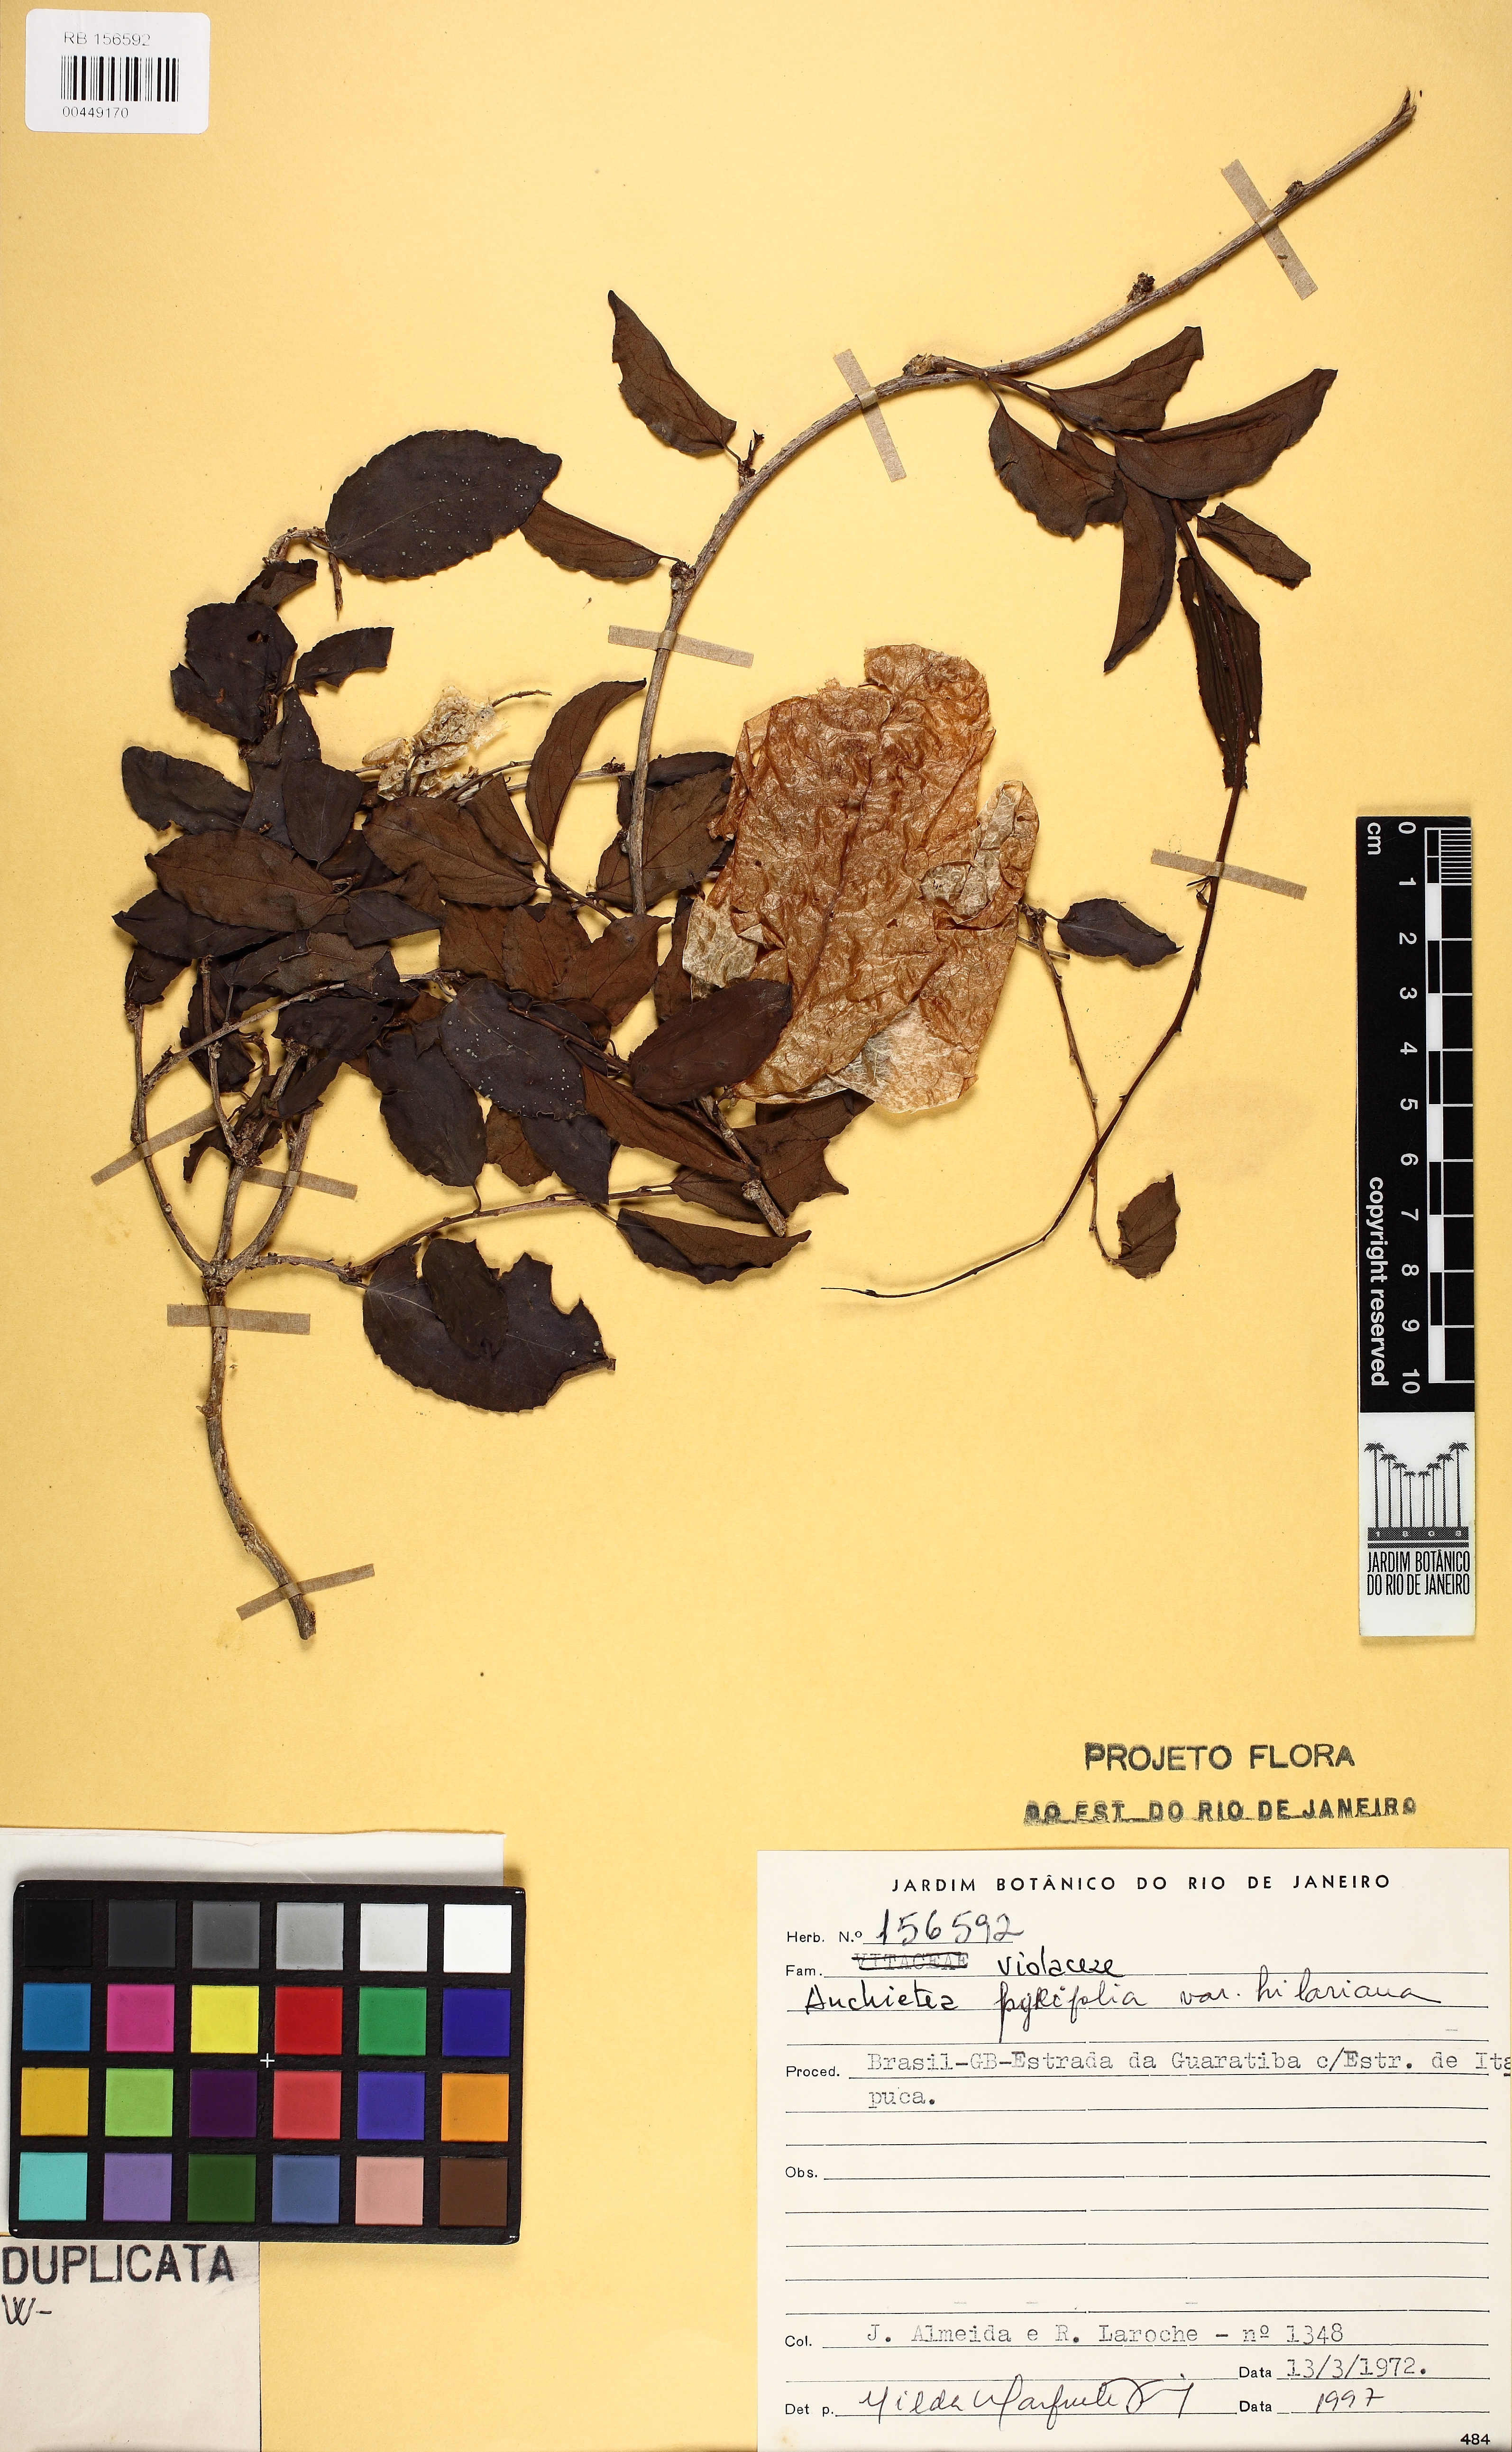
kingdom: Plantae
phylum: Tracheophyta
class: Magnoliopsida
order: Malpighiales
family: Violaceae
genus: Anchietea
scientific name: Anchietea pyrifolia
